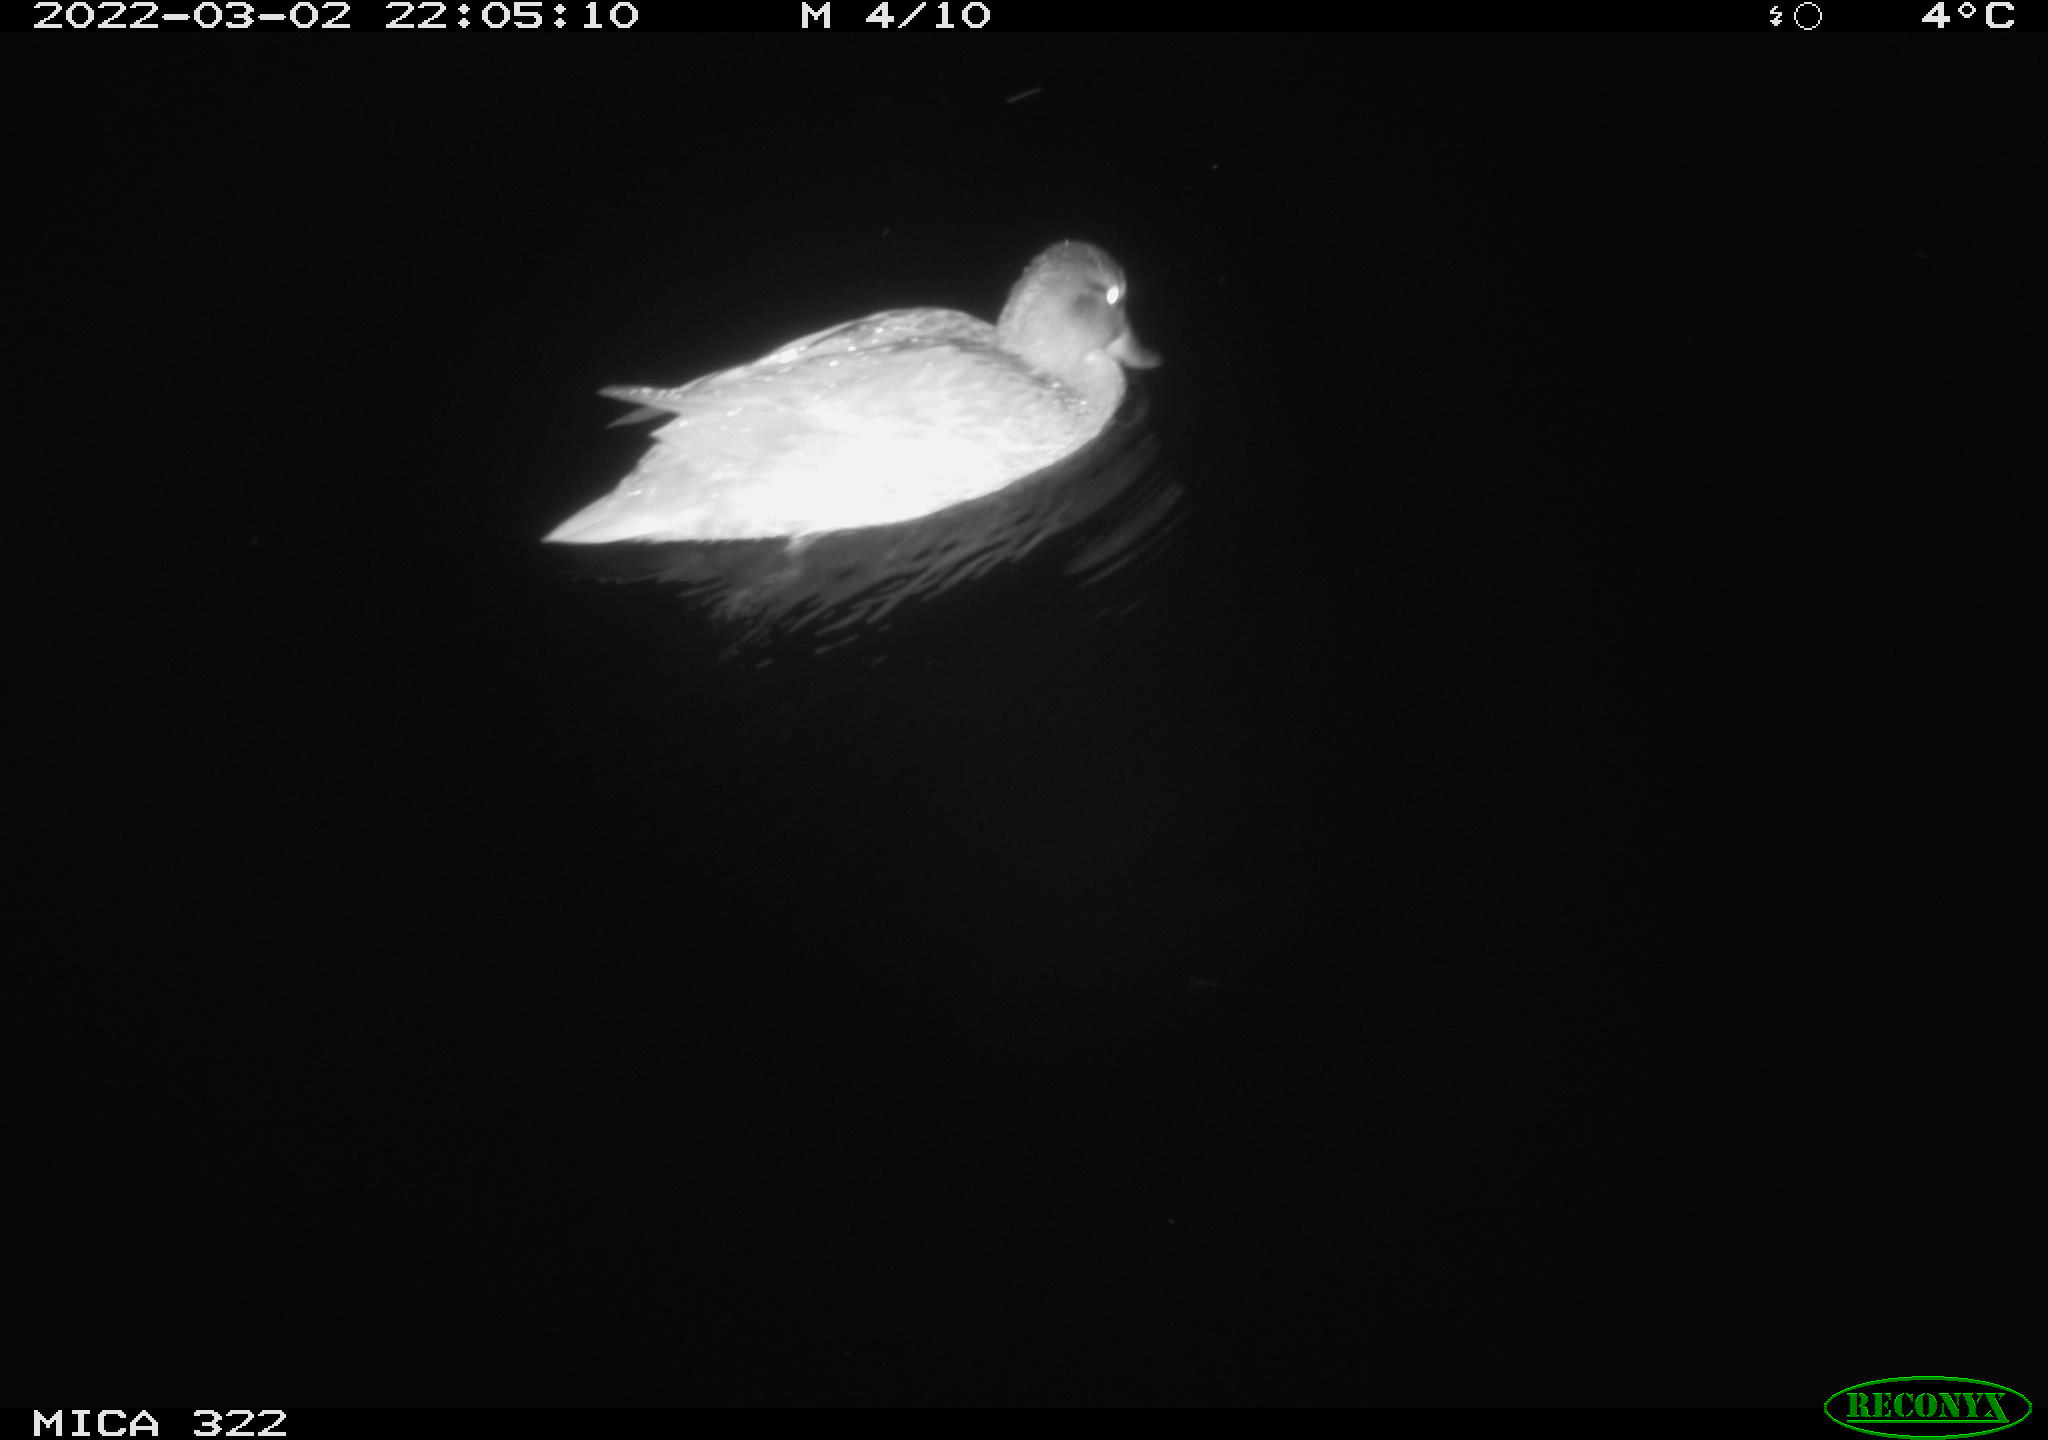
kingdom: Animalia
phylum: Chordata
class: Aves
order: Anseriformes
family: Anatidae
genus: Anas
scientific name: Anas platyrhynchos
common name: Mallard
